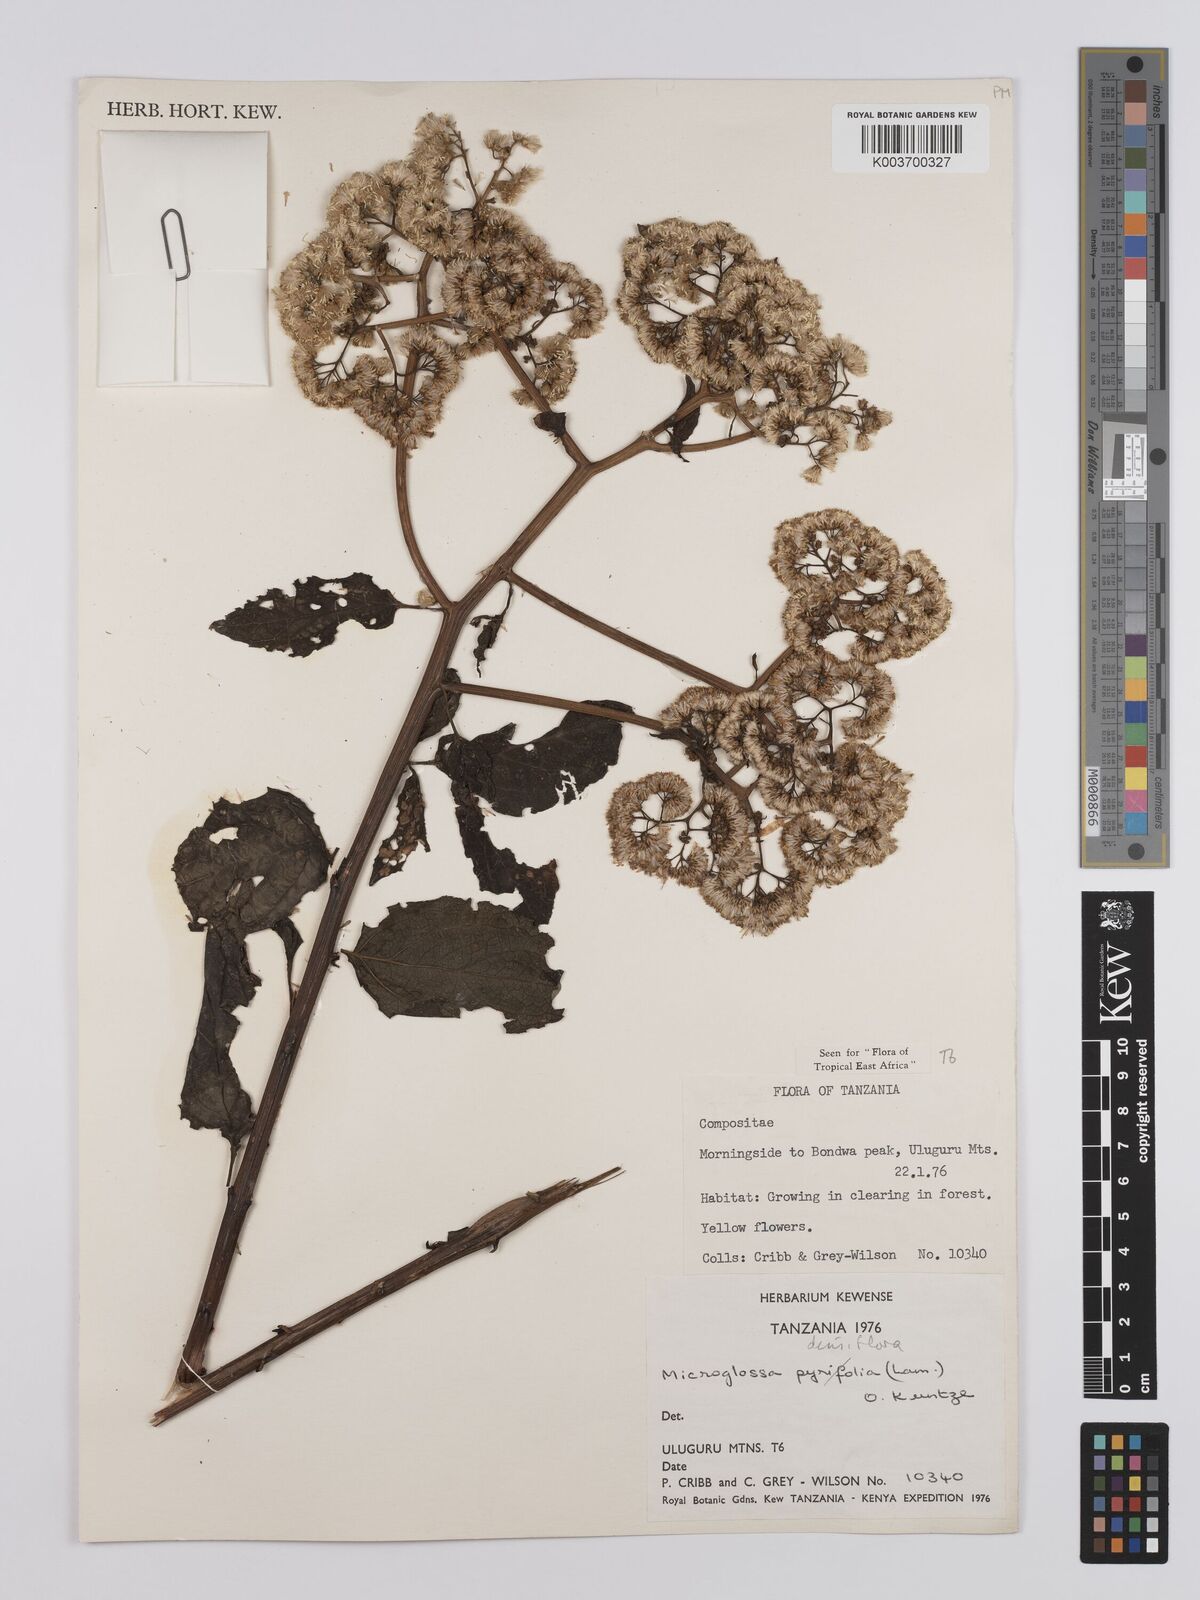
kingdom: Plantae
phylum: Tracheophyta
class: Magnoliopsida
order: Asterales
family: Asteraceae
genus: Microglossa
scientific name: Microglossa densiflora
